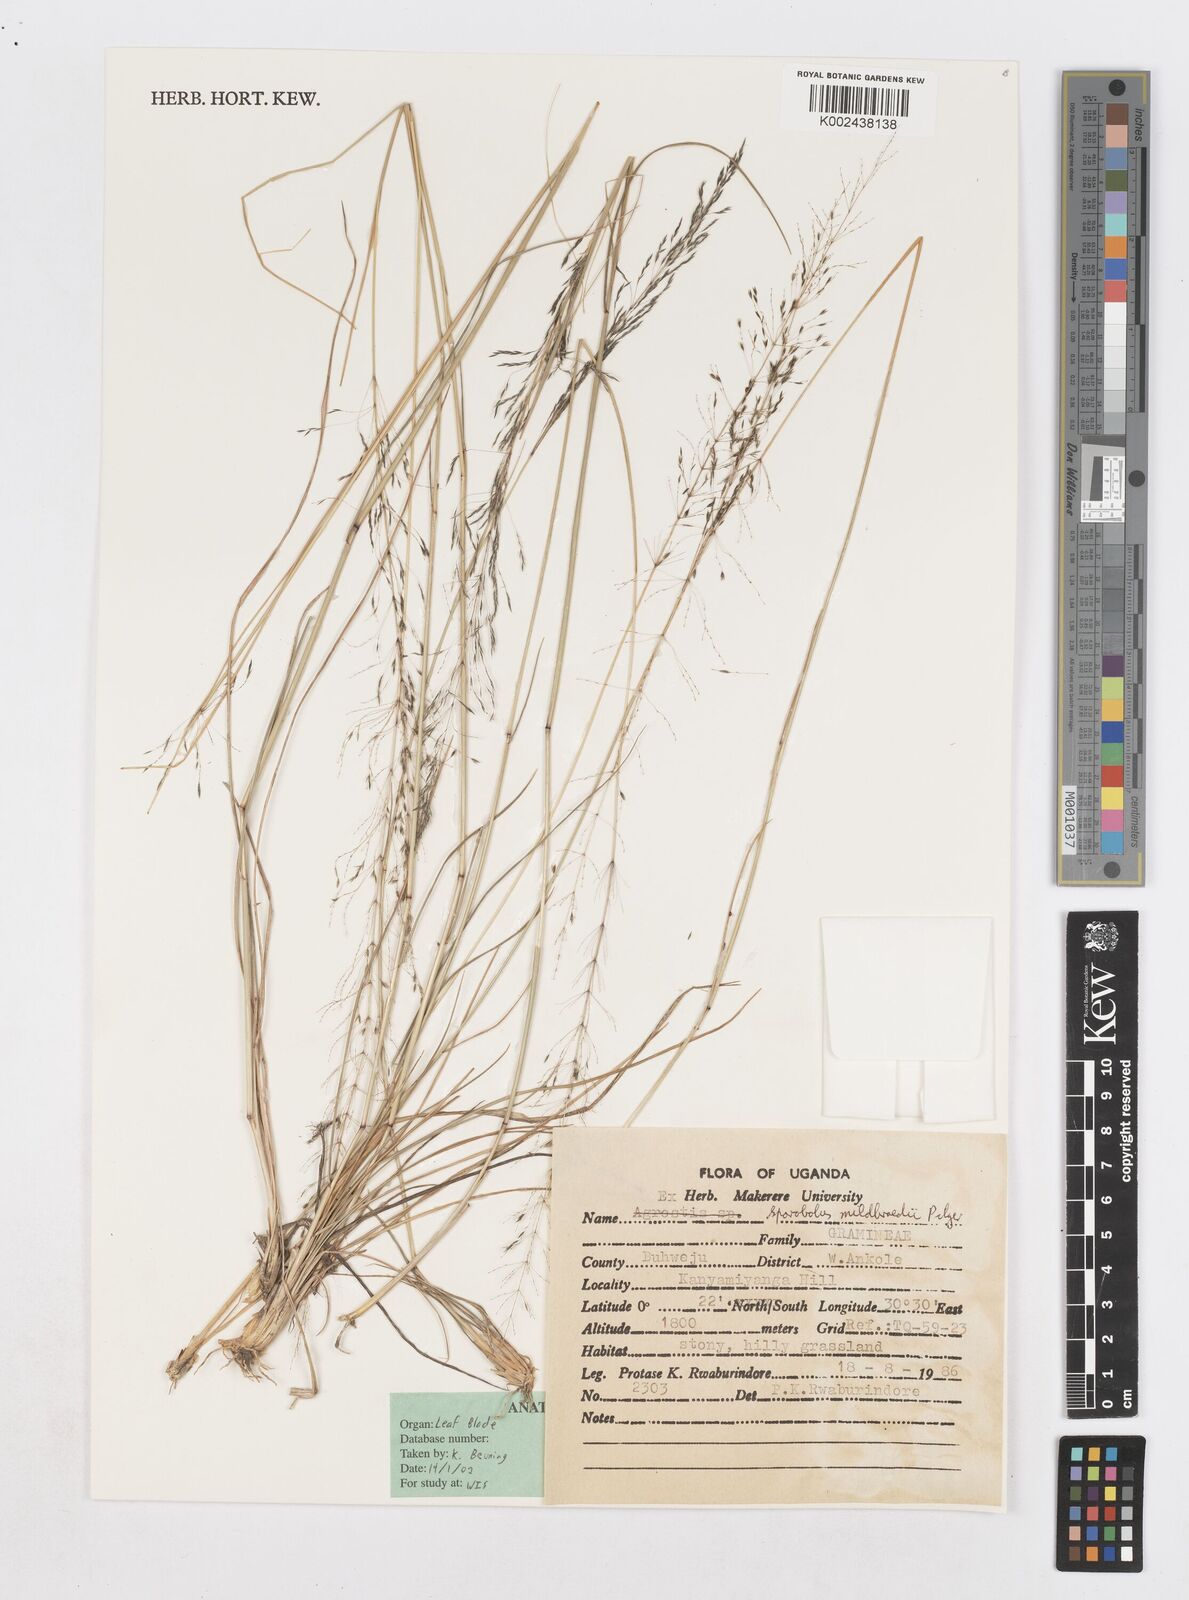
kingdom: Plantae
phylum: Tracheophyta
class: Liliopsida
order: Poales
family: Poaceae
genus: Sporobolus
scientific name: Sporobolus mildbraedii
